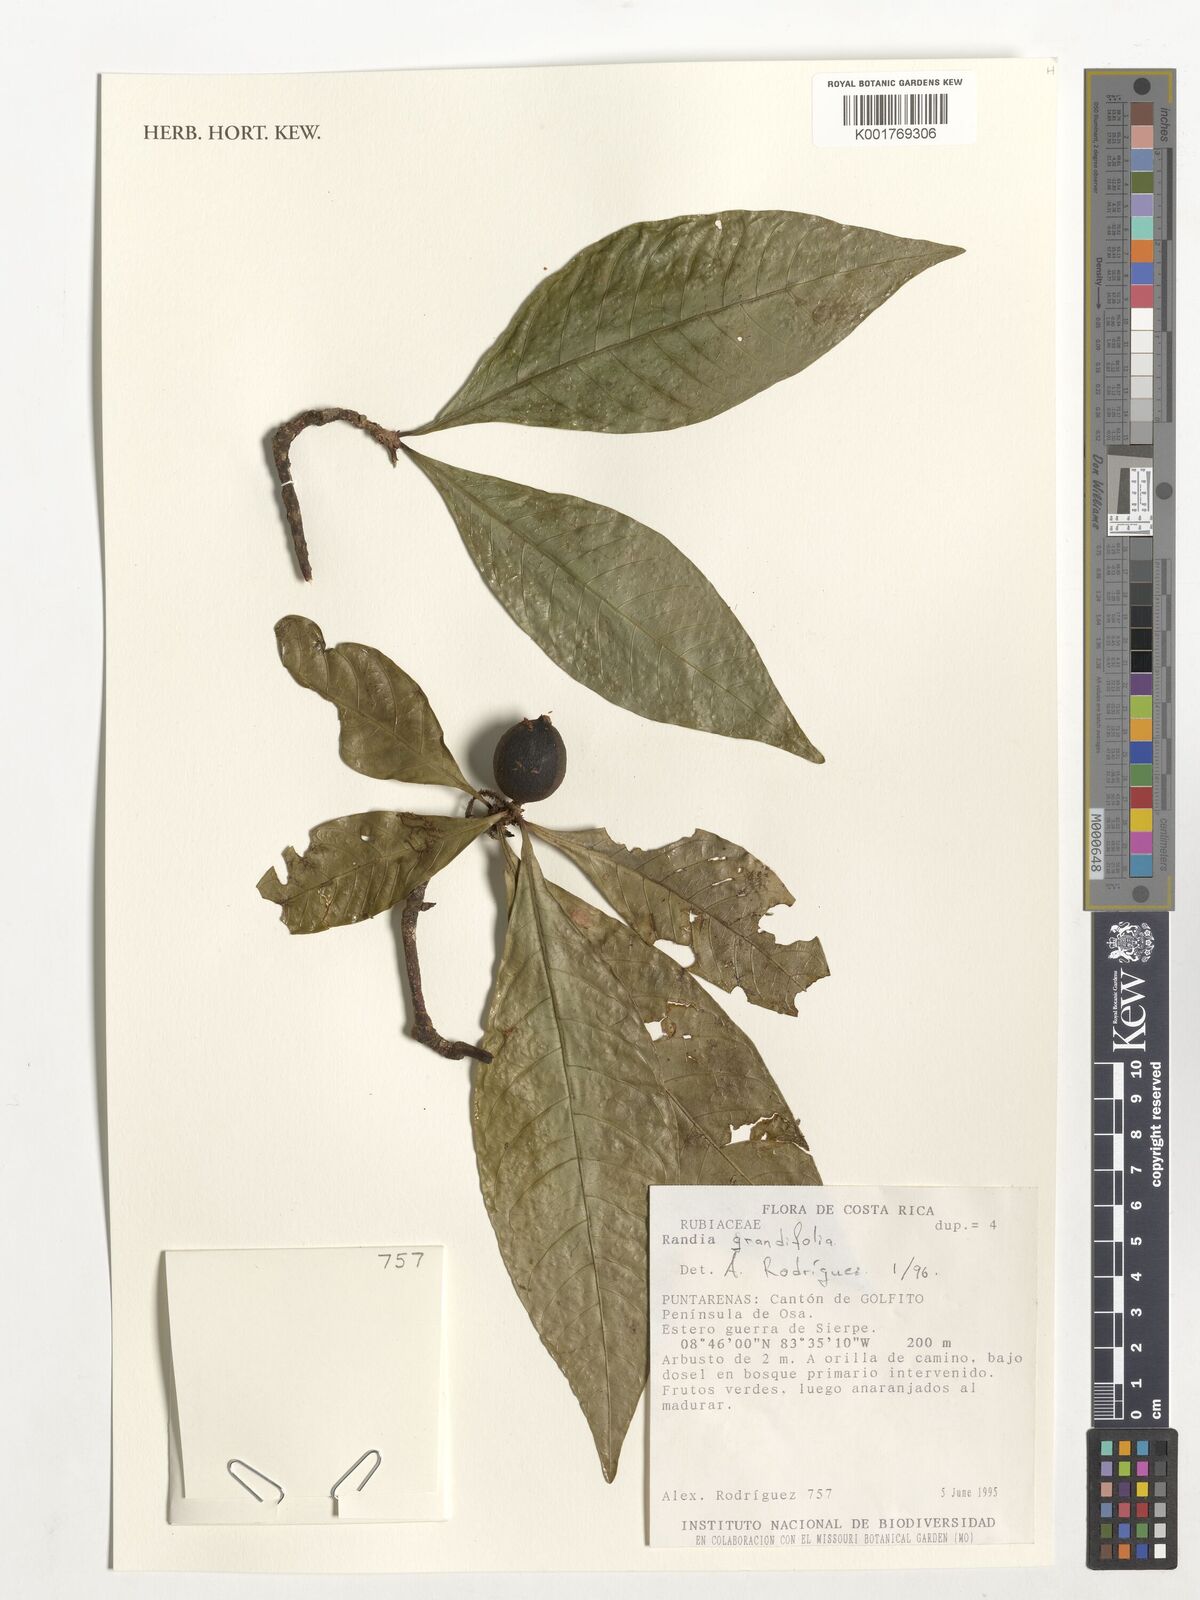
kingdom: Plantae
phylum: Tracheophyta
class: Magnoliopsida
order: Gentianales
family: Rubiaceae
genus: Randia
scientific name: Randia grandifolia
